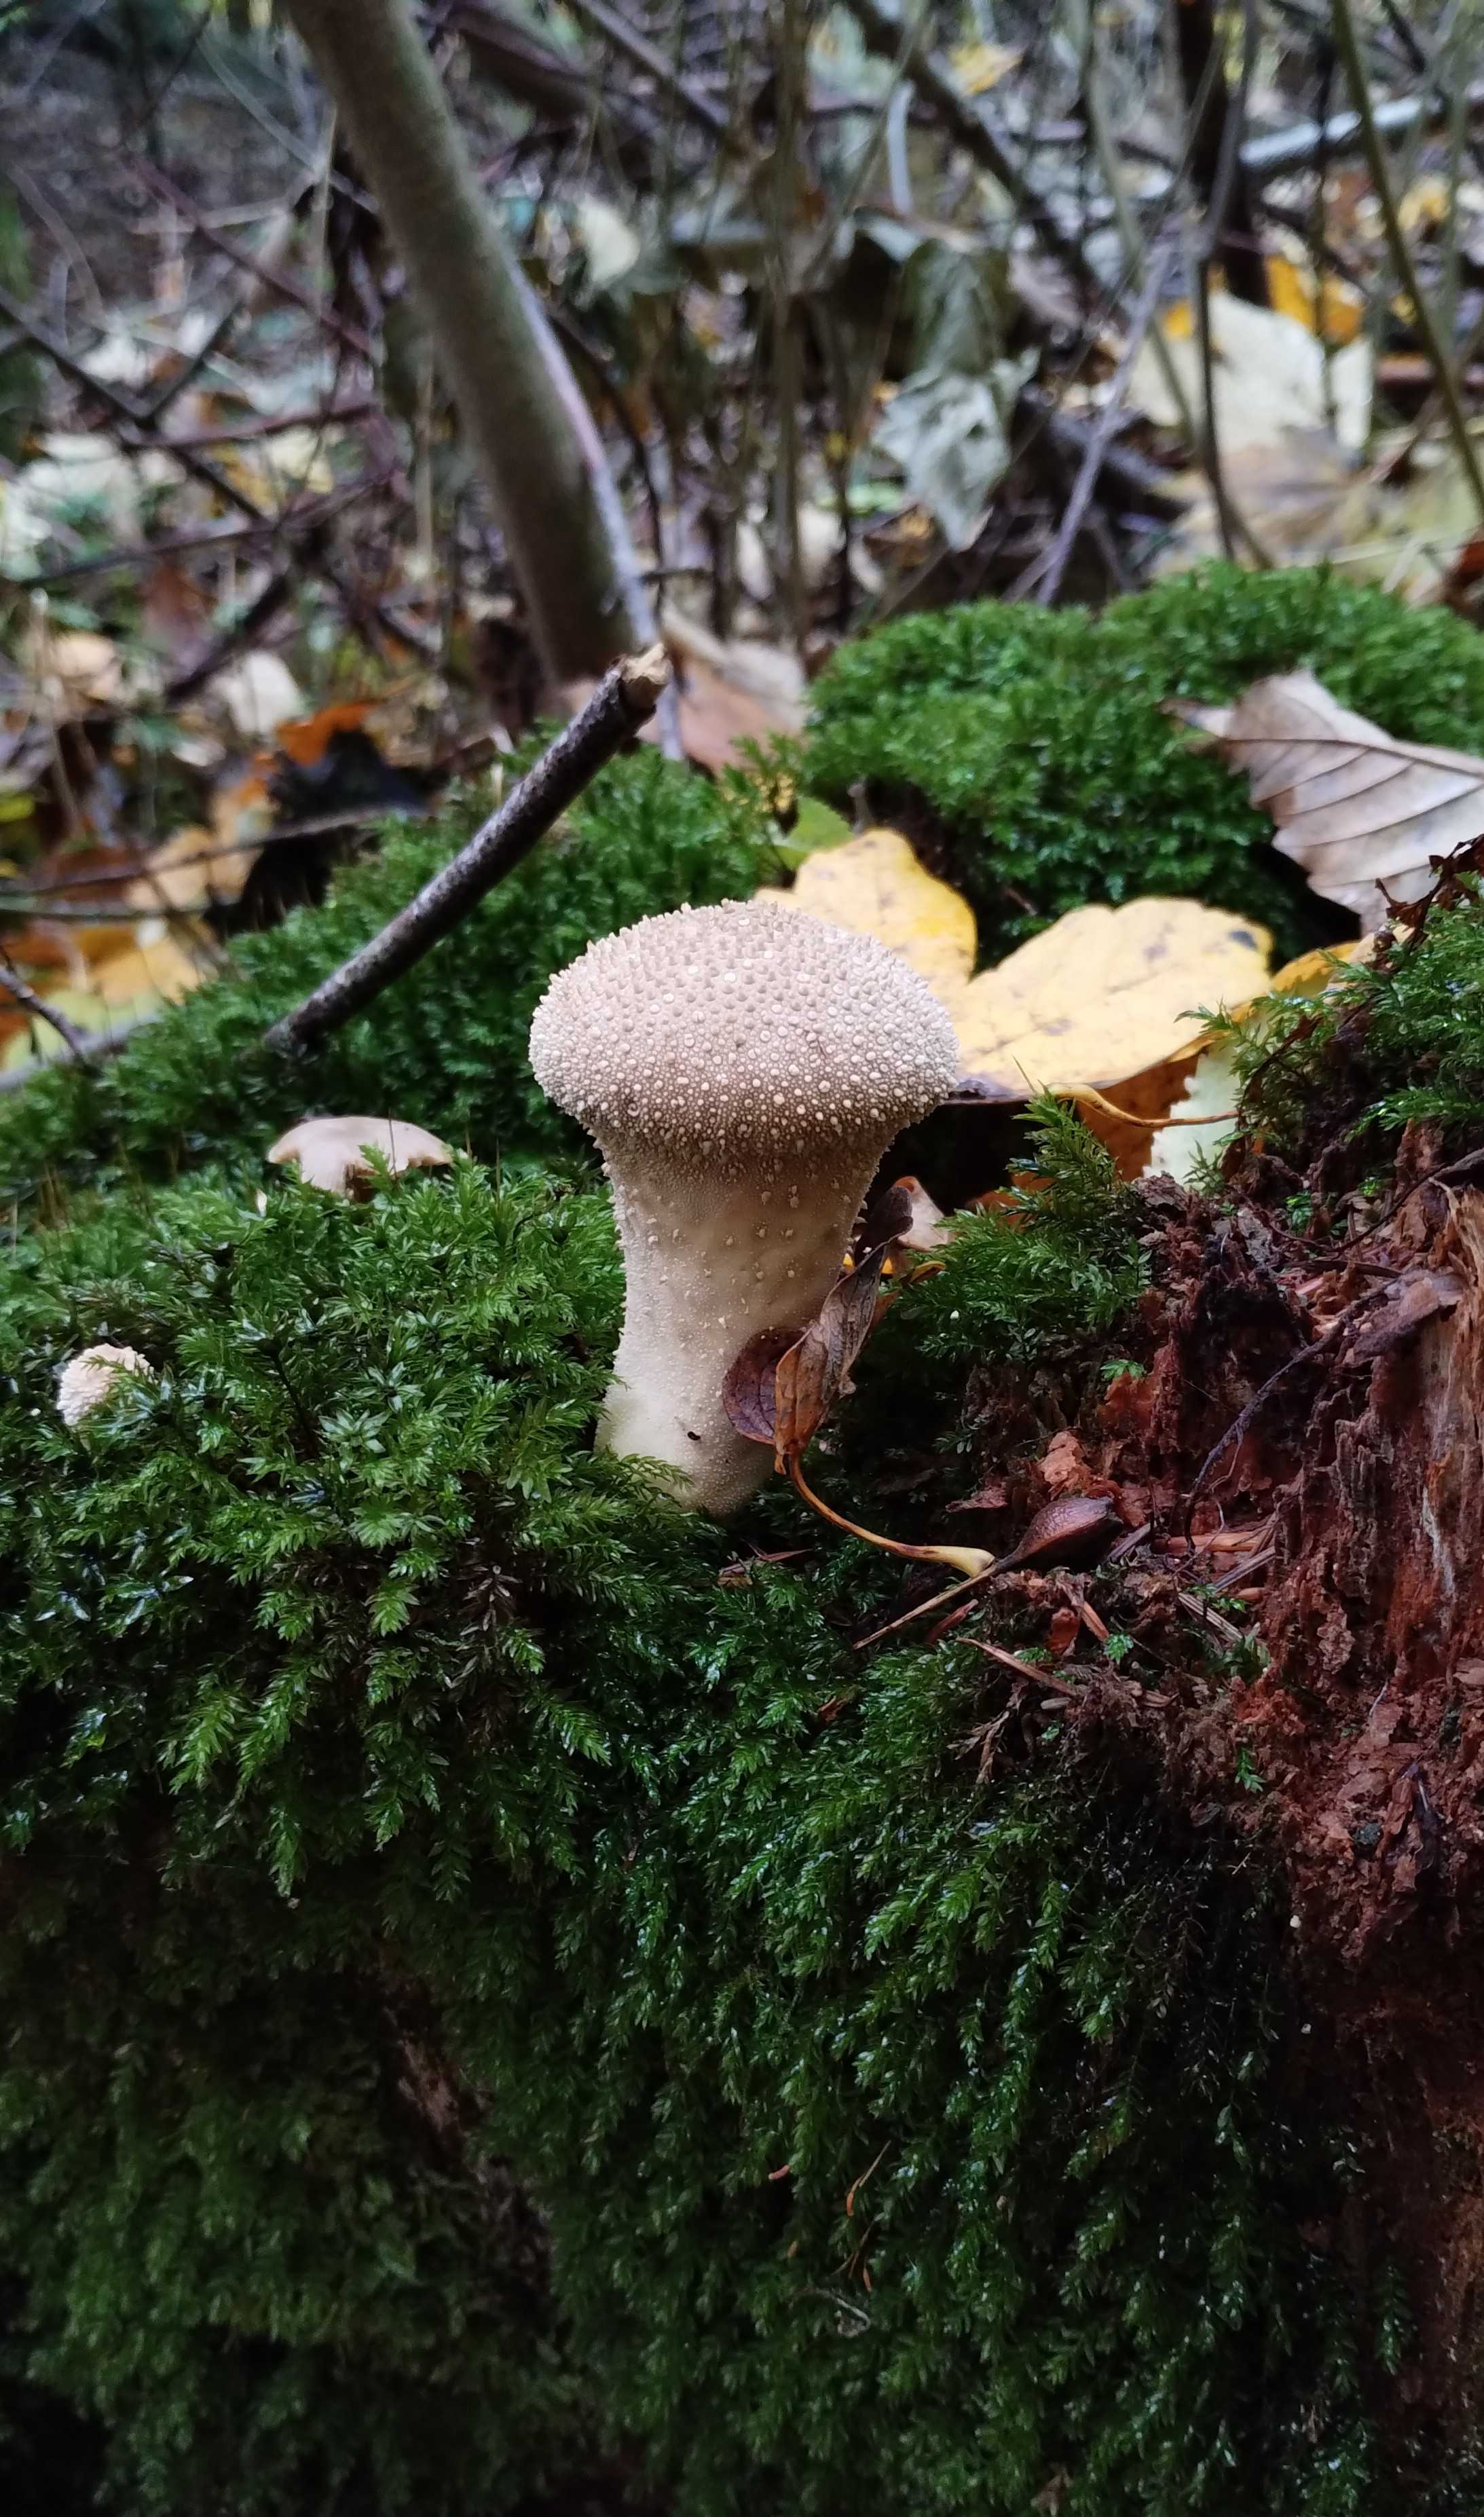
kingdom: Fungi
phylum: Basidiomycota
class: Agaricomycetes
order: Agaricales
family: Lycoperdaceae
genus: Lycoperdon
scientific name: Lycoperdon perlatum
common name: krystal-støvbold
